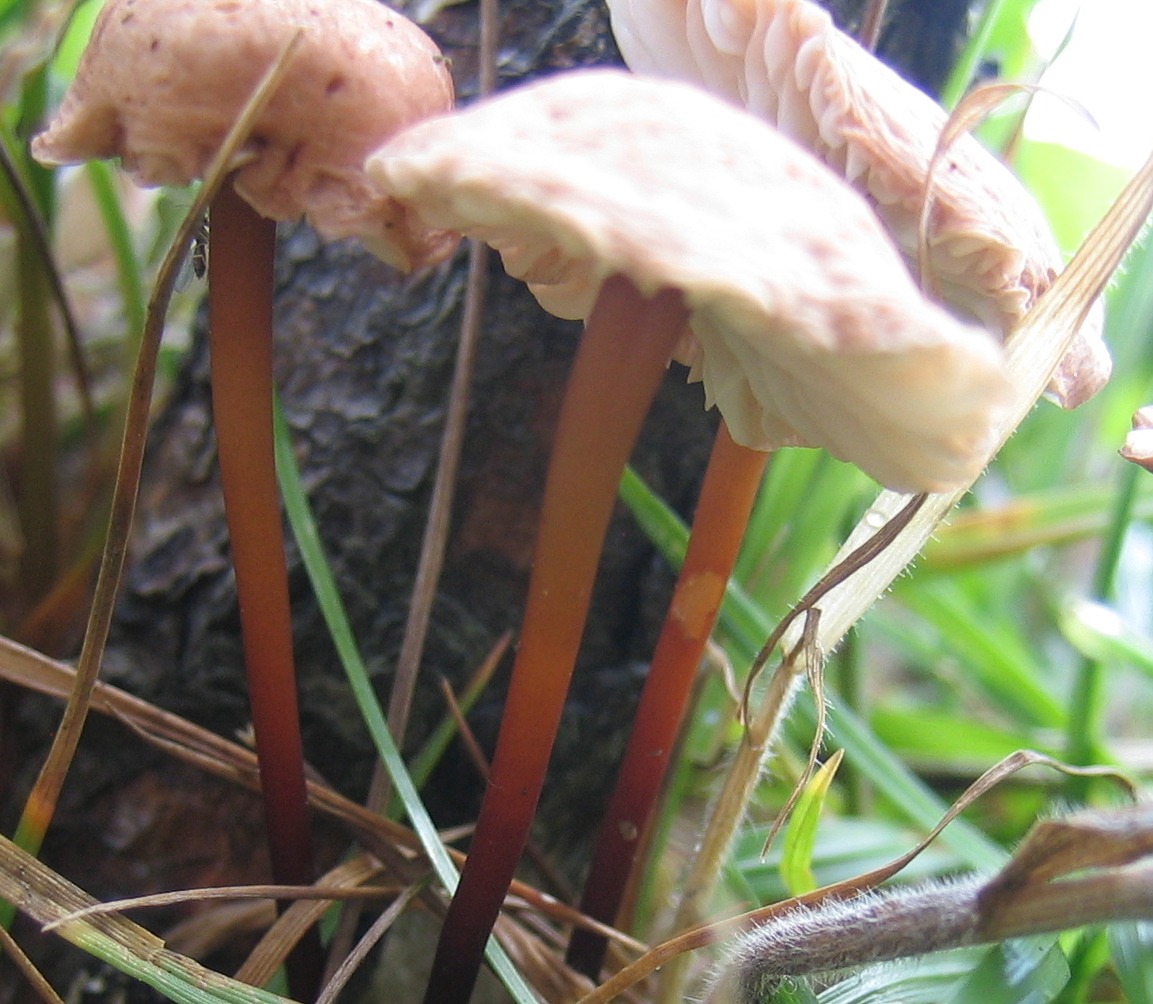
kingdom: Fungi
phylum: Basidiomycota
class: Agaricomycetes
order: Agaricales
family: Omphalotaceae
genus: Mycetinis
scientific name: Mycetinis scorodonius
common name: lille løghat
